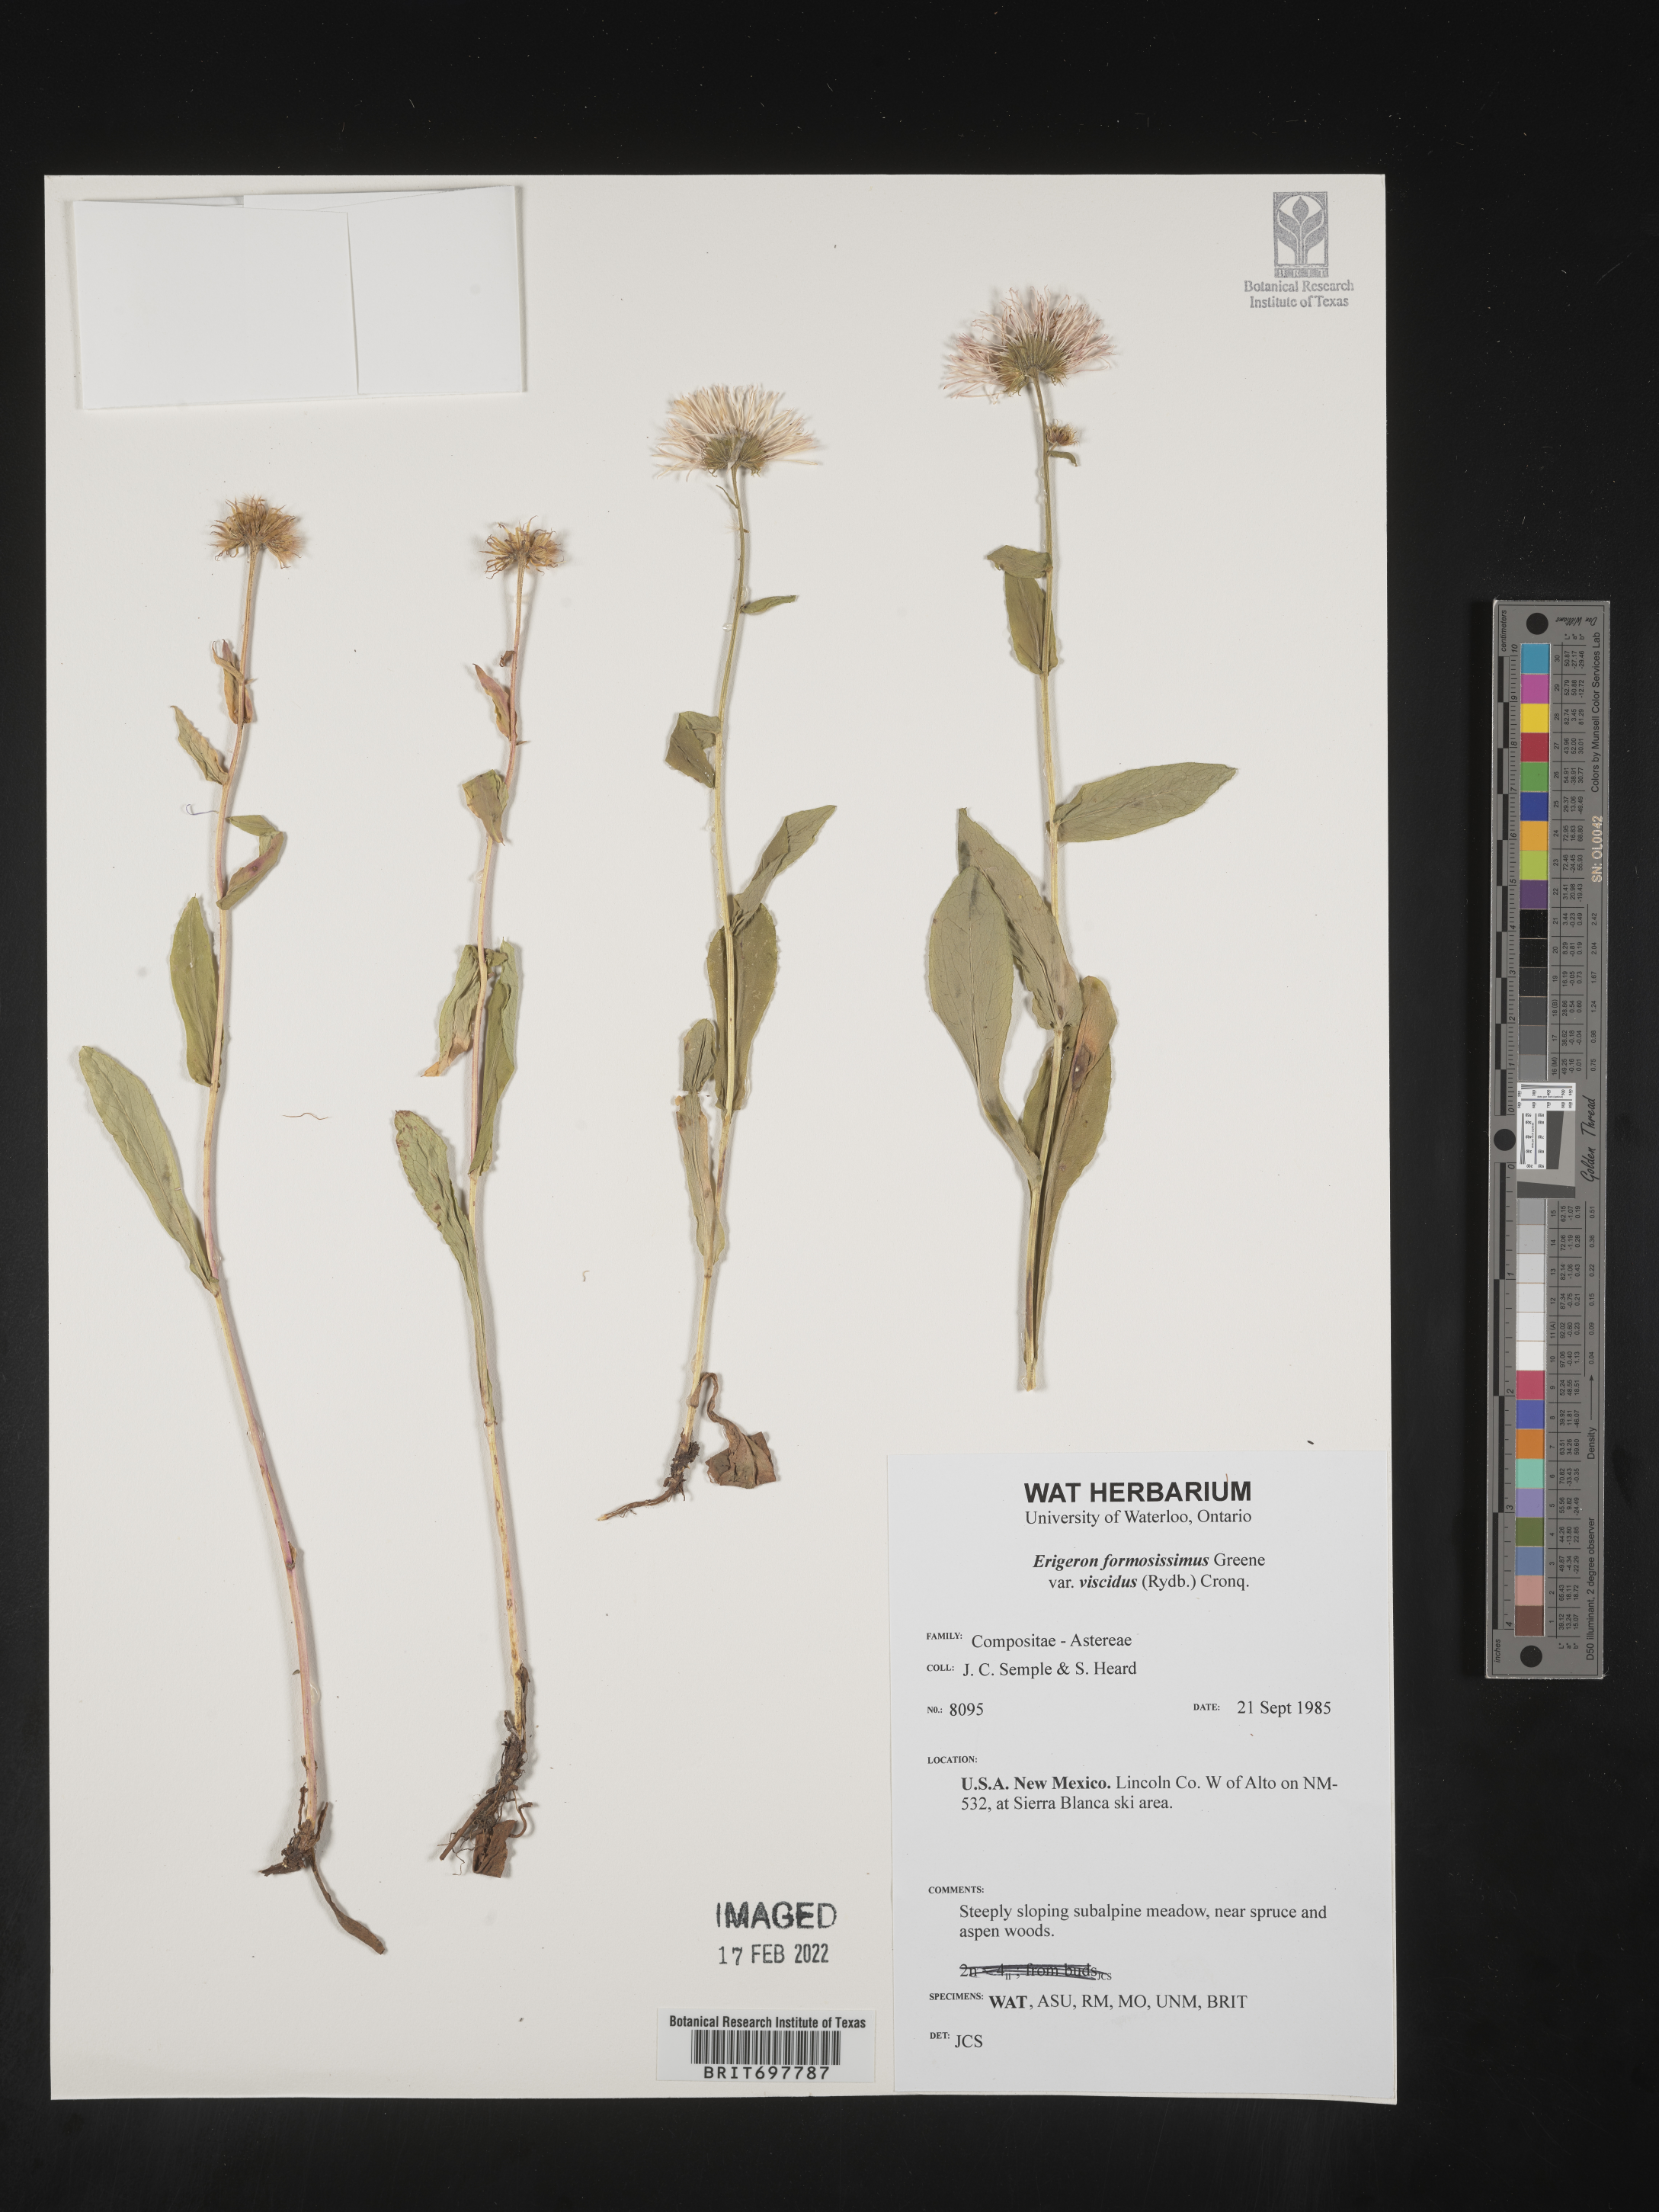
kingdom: Plantae
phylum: Tracheophyta
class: Magnoliopsida
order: Asterales
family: Asteraceae
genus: Erigeron
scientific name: Erigeron formosissimus
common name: Beautiful fleabane
